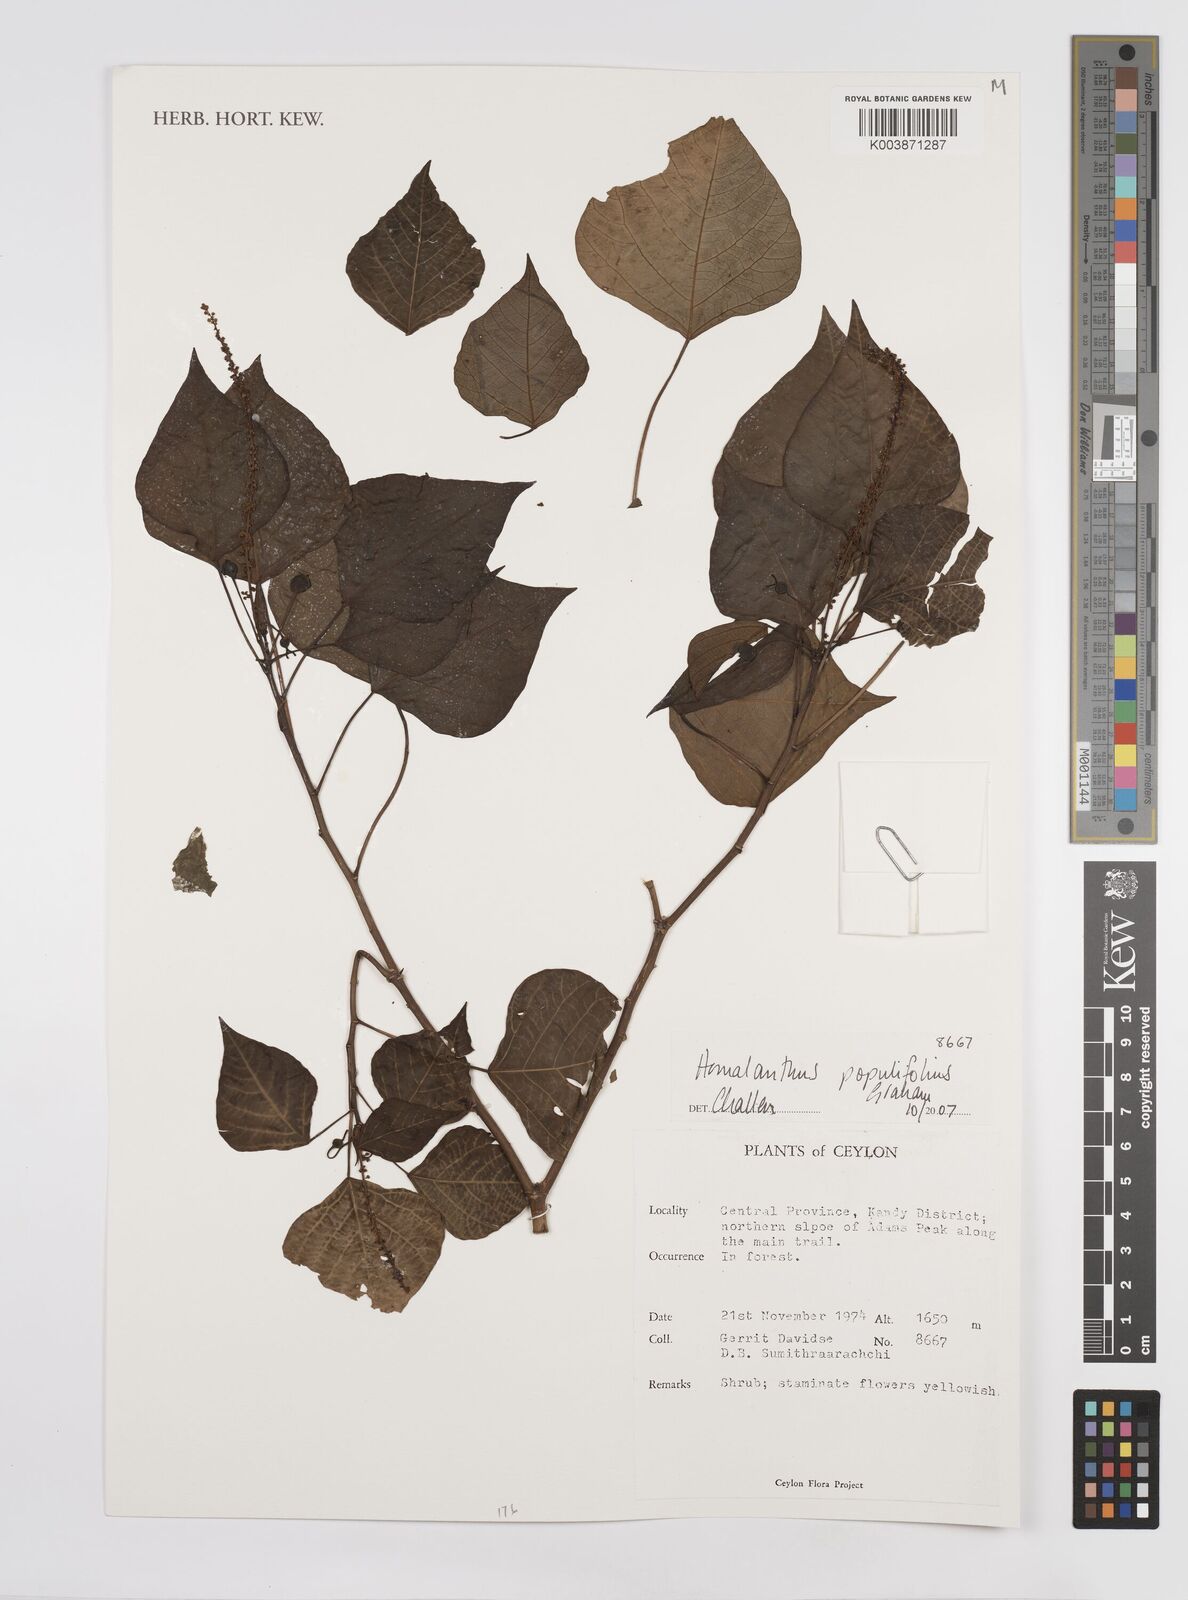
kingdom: Plantae
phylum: Tracheophyta
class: Magnoliopsida
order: Malpighiales
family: Euphorbiaceae
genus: Homalanthus
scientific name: Homalanthus populneus
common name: Spurge
